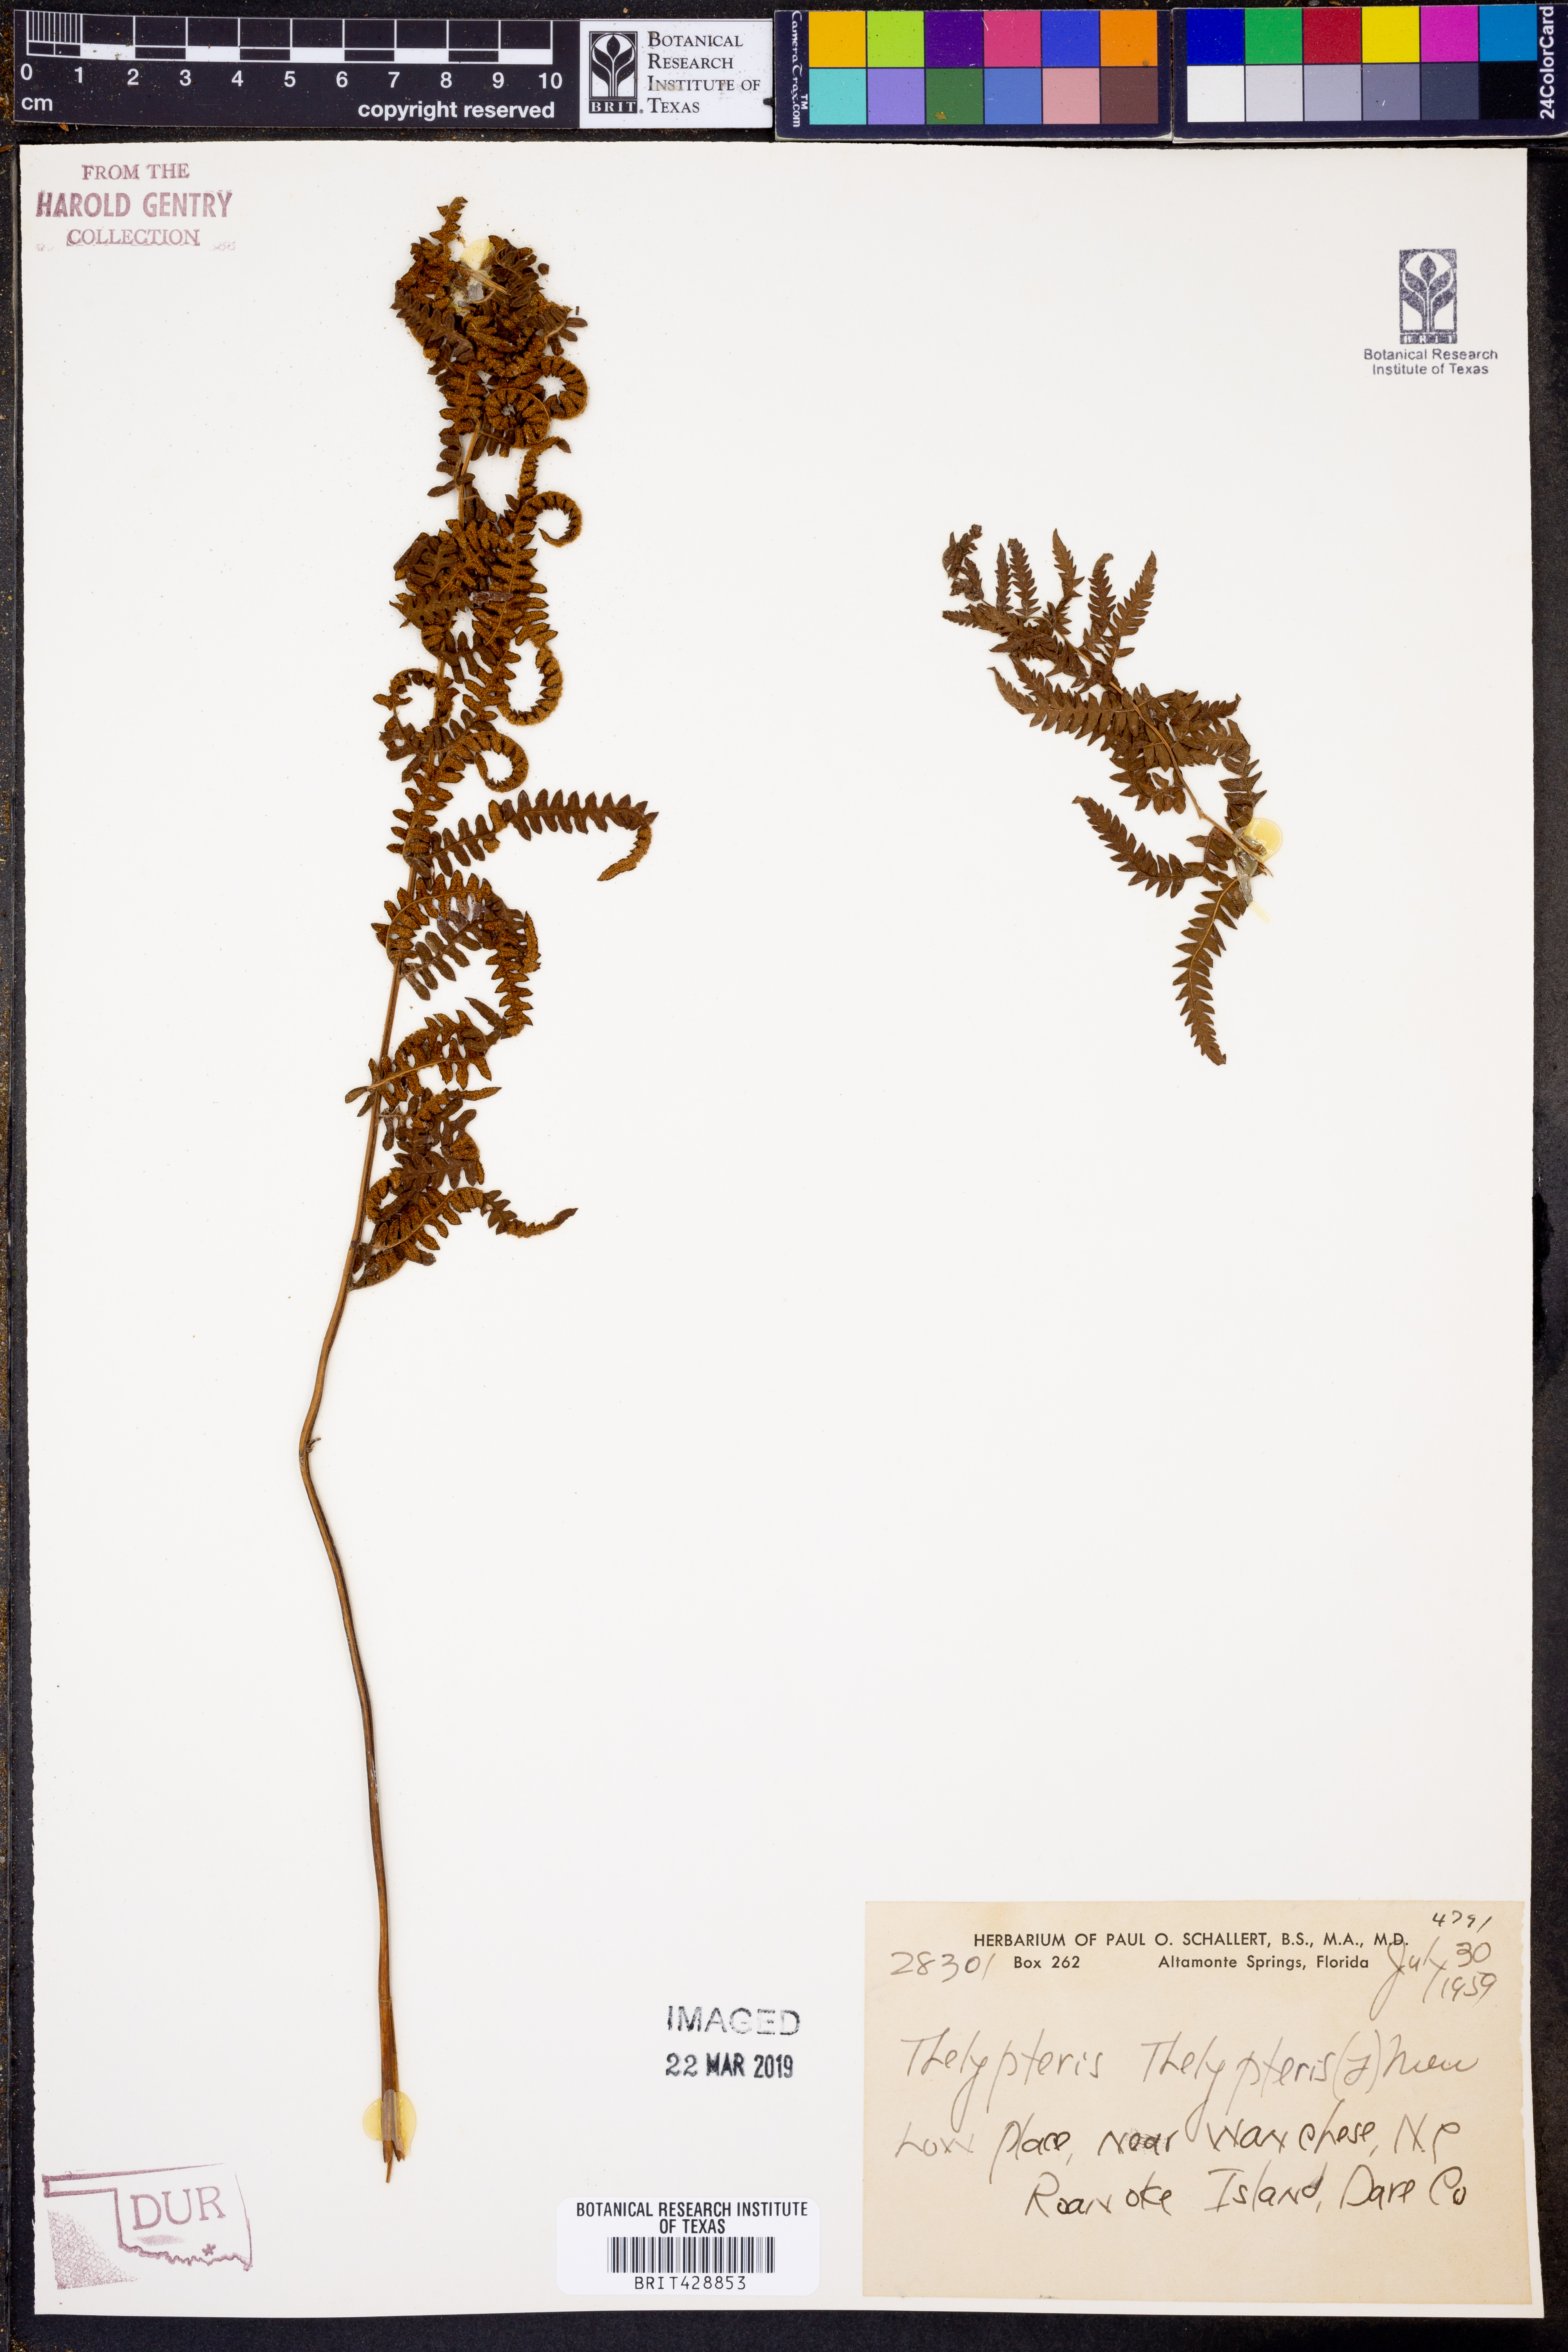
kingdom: Plantae
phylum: Tracheophyta
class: Polypodiopsida
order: Polypodiales
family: Thelypteridaceae
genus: Thelypteris
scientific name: Thelypteris palustris
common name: Marsh fern
